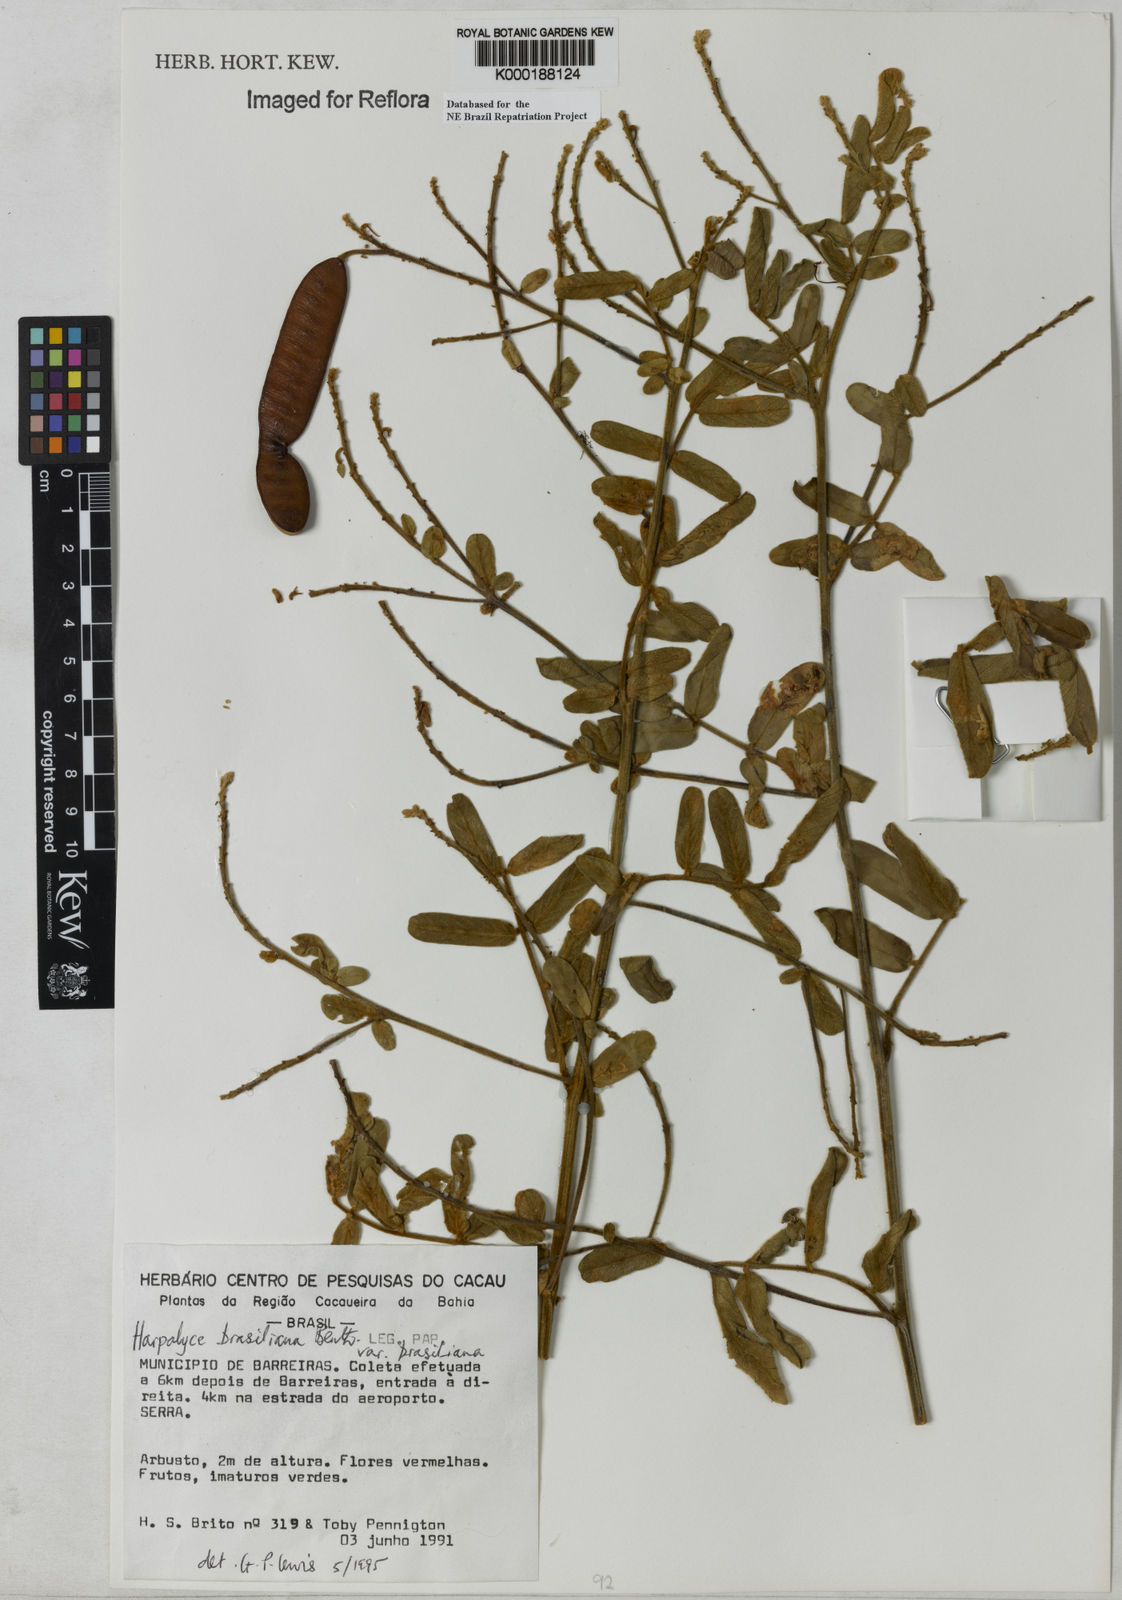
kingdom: Plantae
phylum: Tracheophyta
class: Magnoliopsida
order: Fabales
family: Fabaceae
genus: Harpalyce
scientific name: Harpalyce brasiliana
